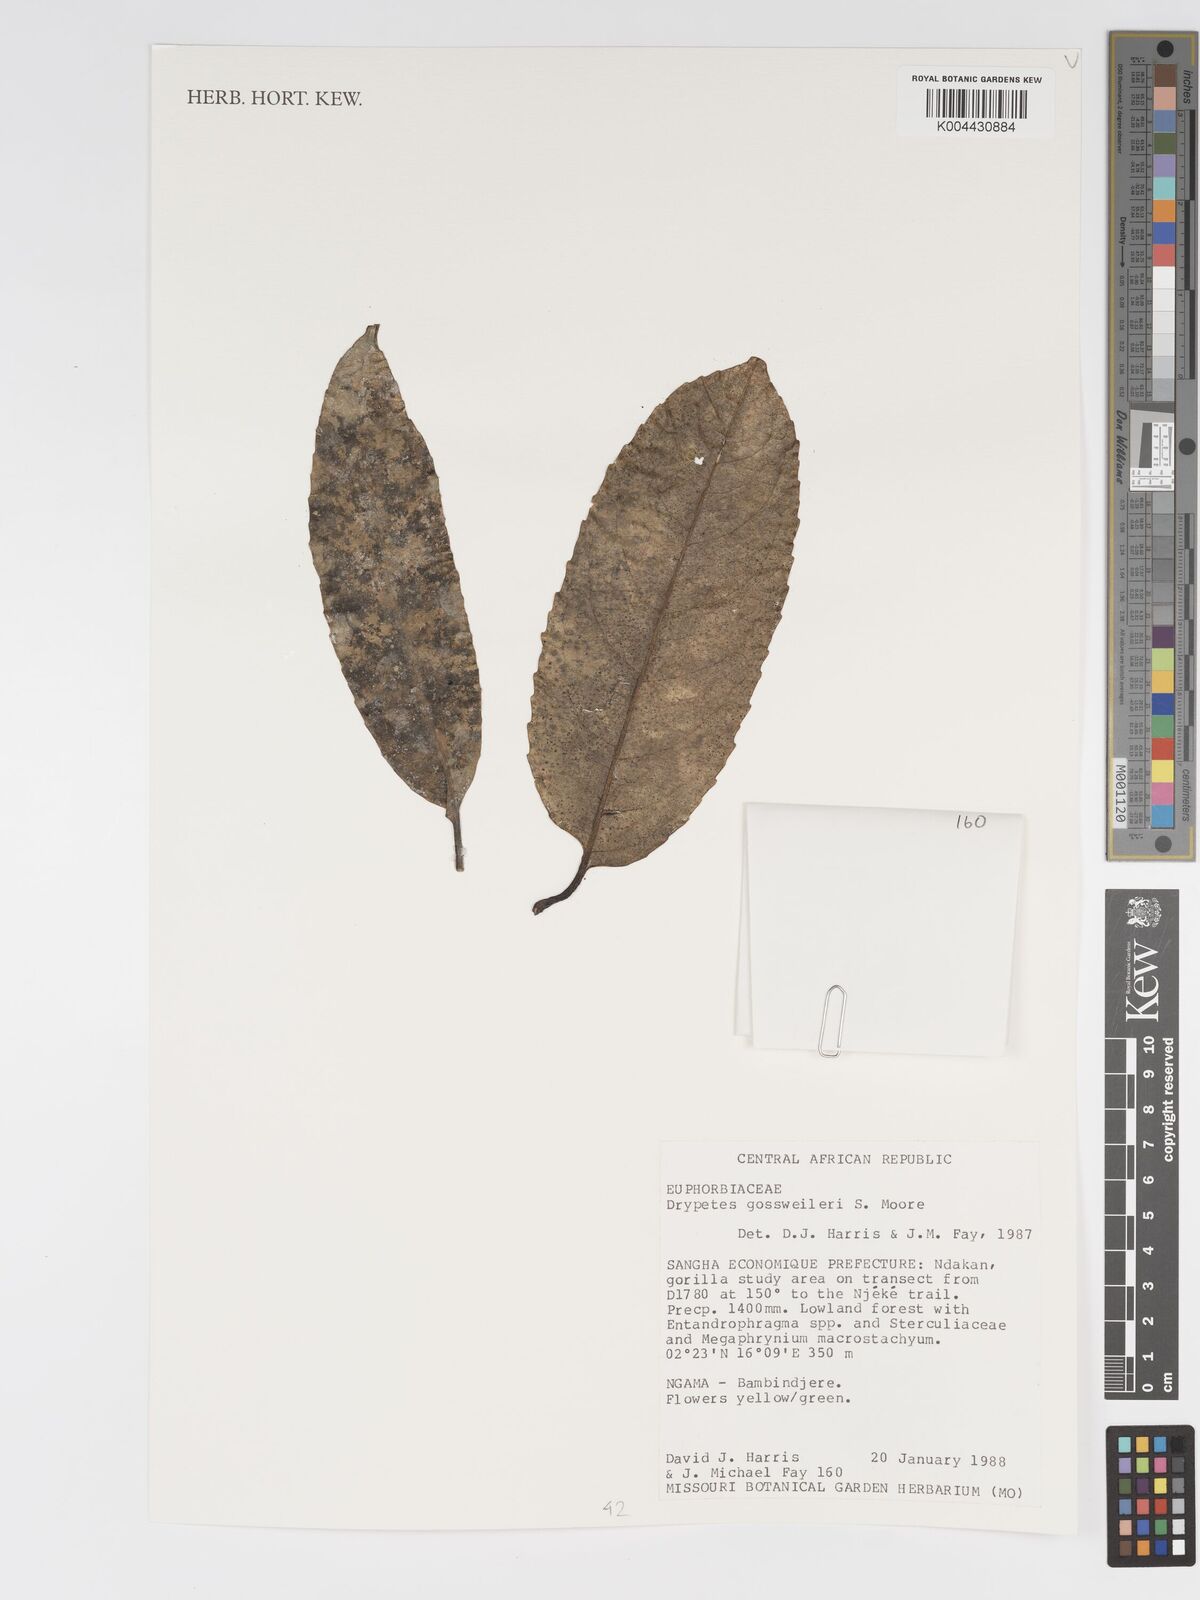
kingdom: Plantae
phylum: Tracheophyta
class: Magnoliopsida
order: Malpighiales
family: Putranjivaceae
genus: Drypetes
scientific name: Drypetes gossweileri
